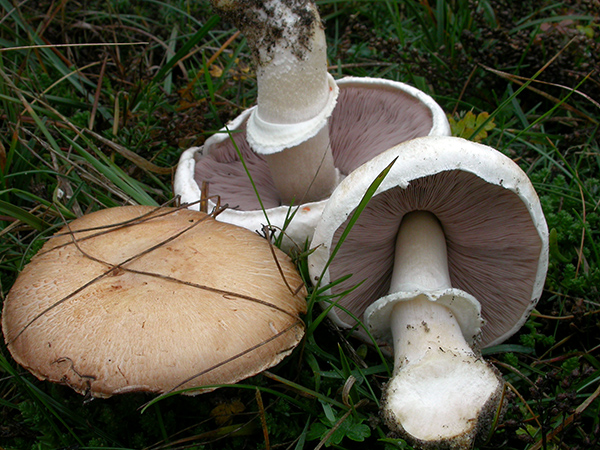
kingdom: Fungi
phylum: Basidiomycota
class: Agaricomycetes
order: Agaricales
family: Agaricaceae
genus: Agaricus
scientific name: Agaricus
